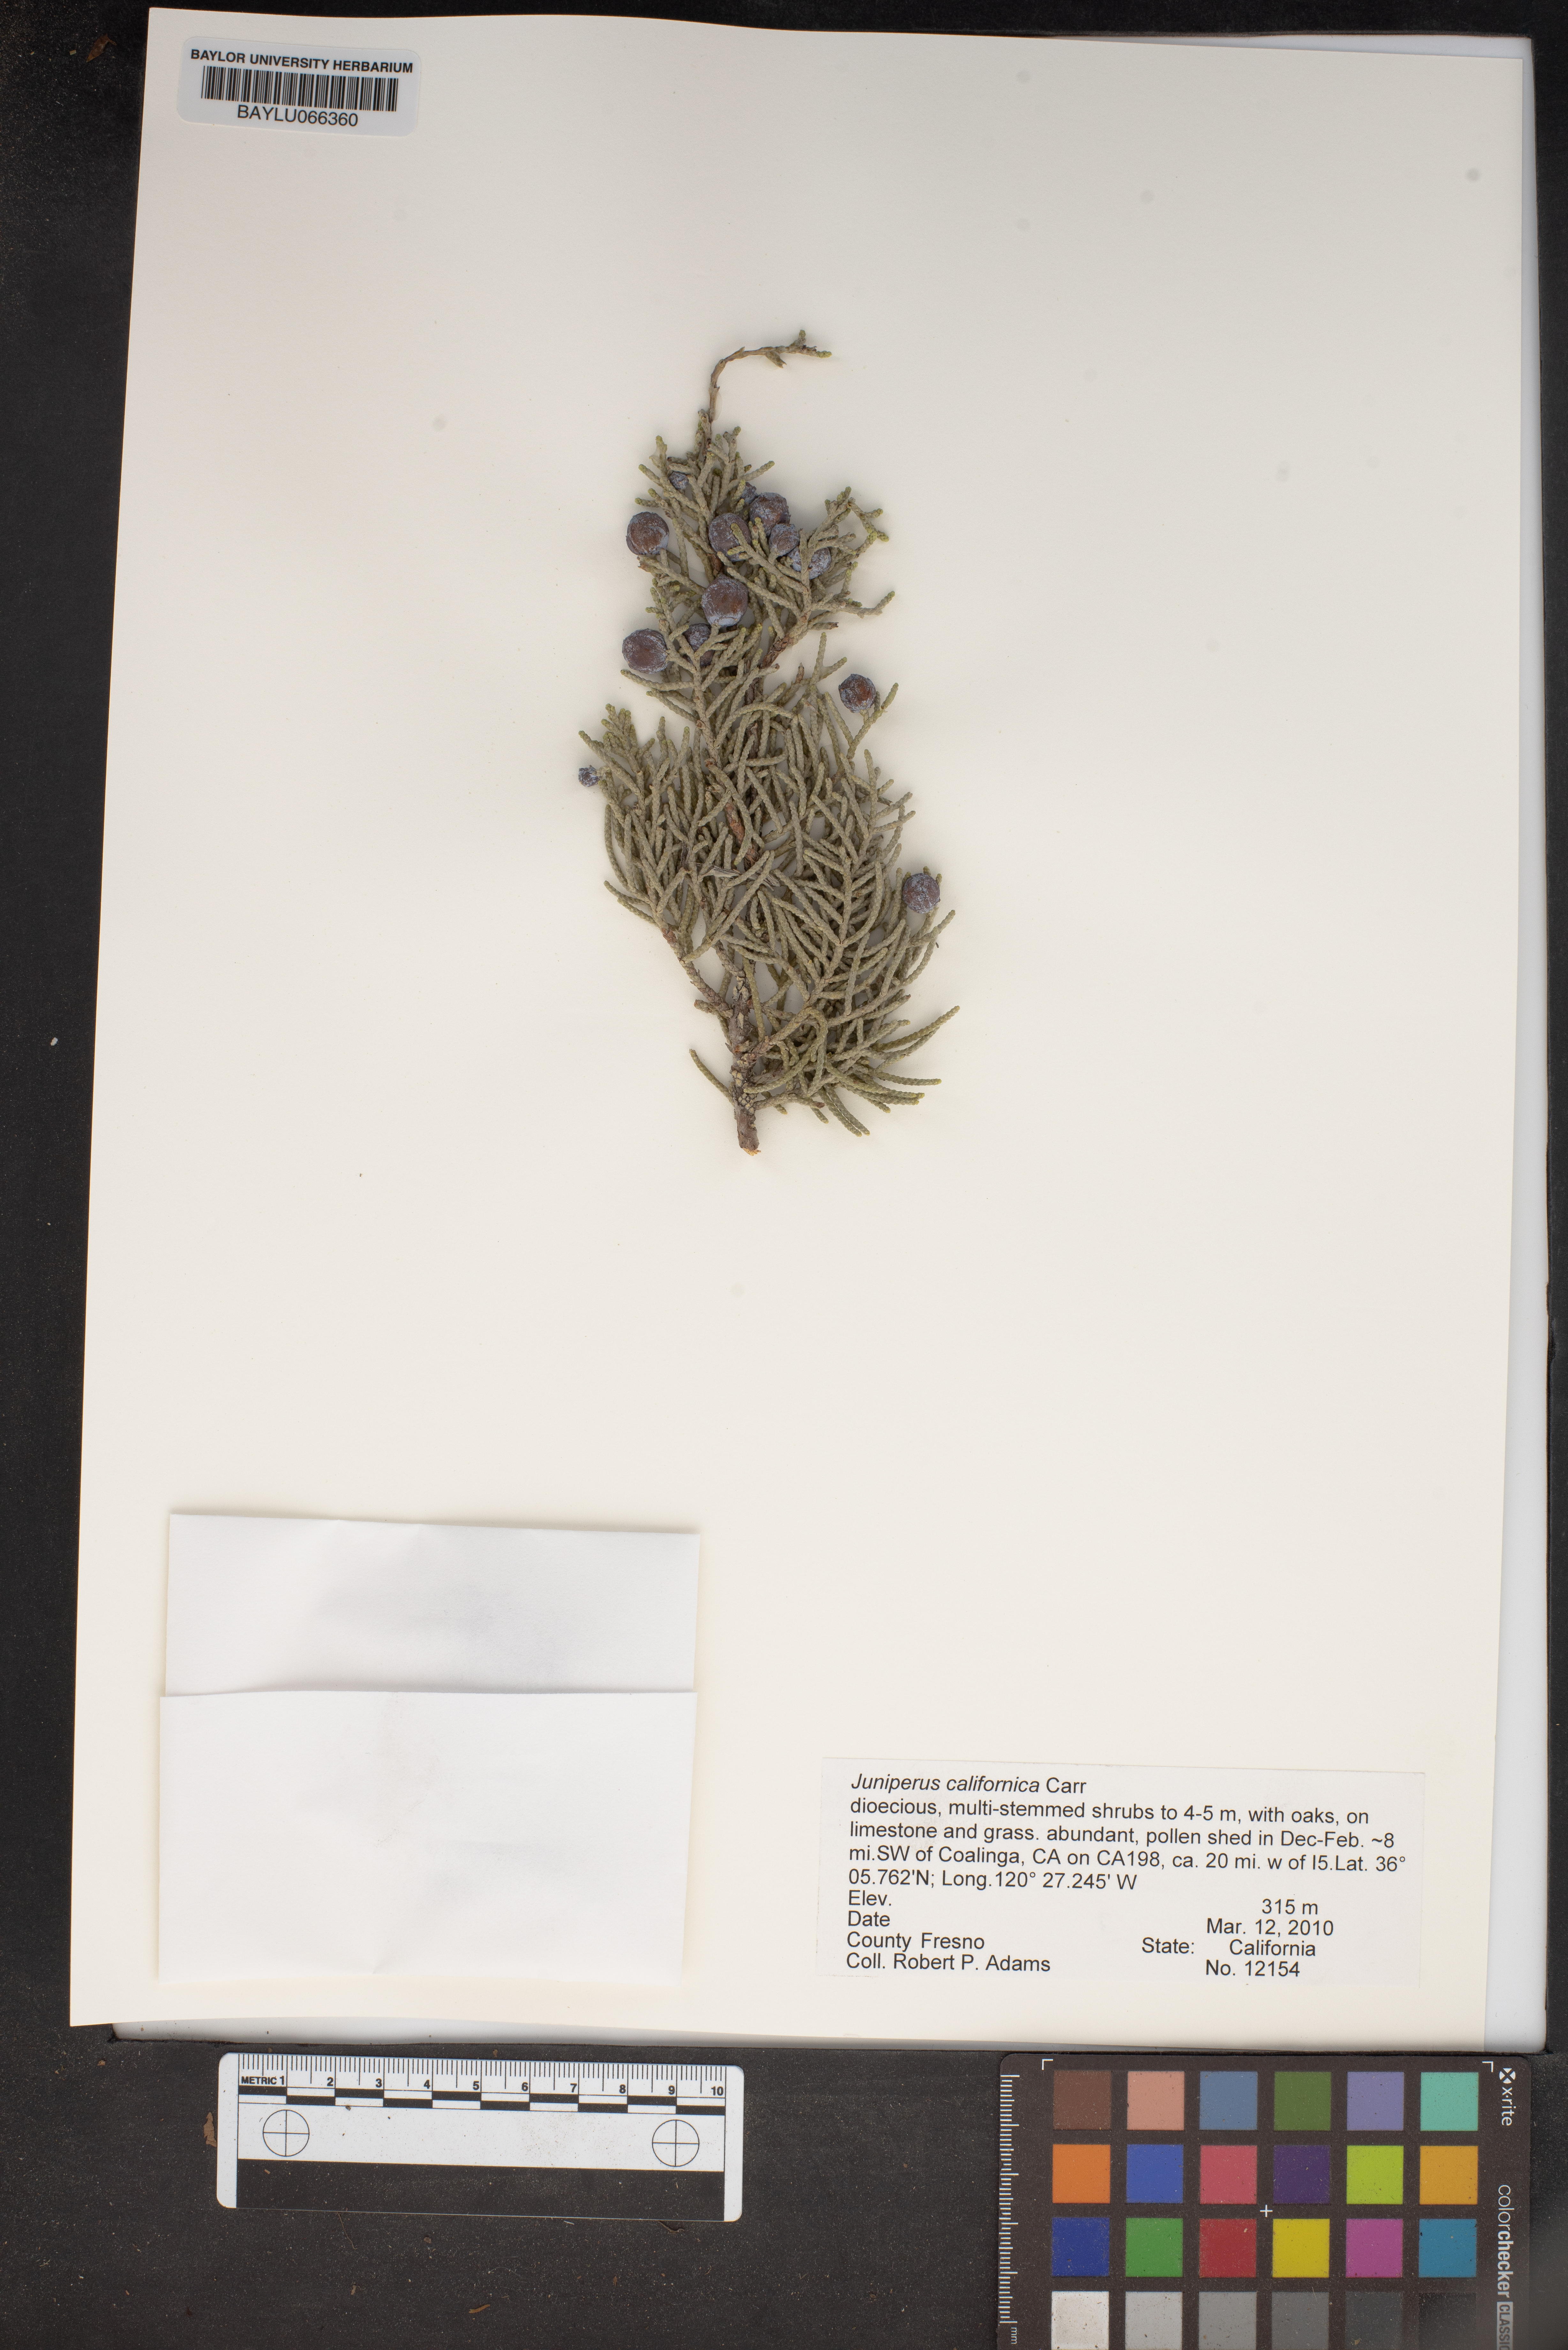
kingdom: Plantae
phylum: Tracheophyta
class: Pinopsida
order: Pinales
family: Cupressaceae
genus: Juniperus
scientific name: Juniperus californica
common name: California juniper
